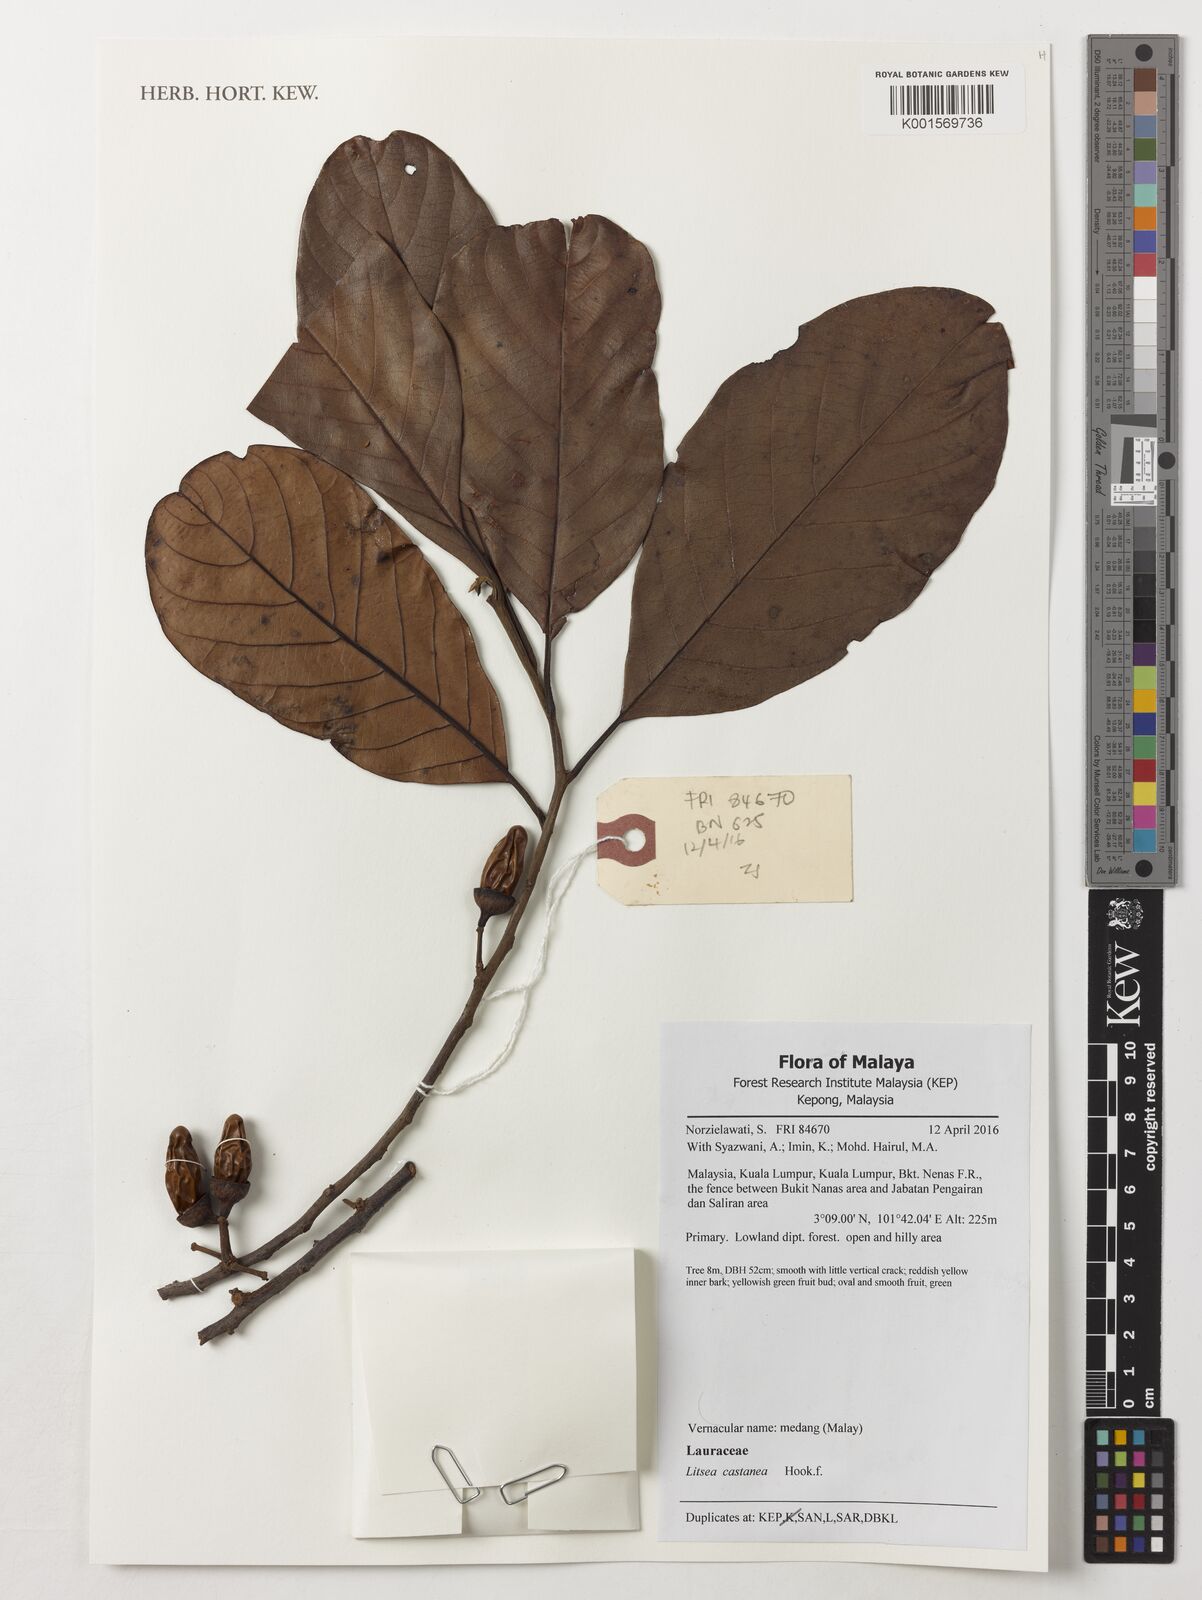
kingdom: Plantae
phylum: Tracheophyta
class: Magnoliopsida
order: Laurales
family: Lauraceae
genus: Litsea
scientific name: Litsea castanea
